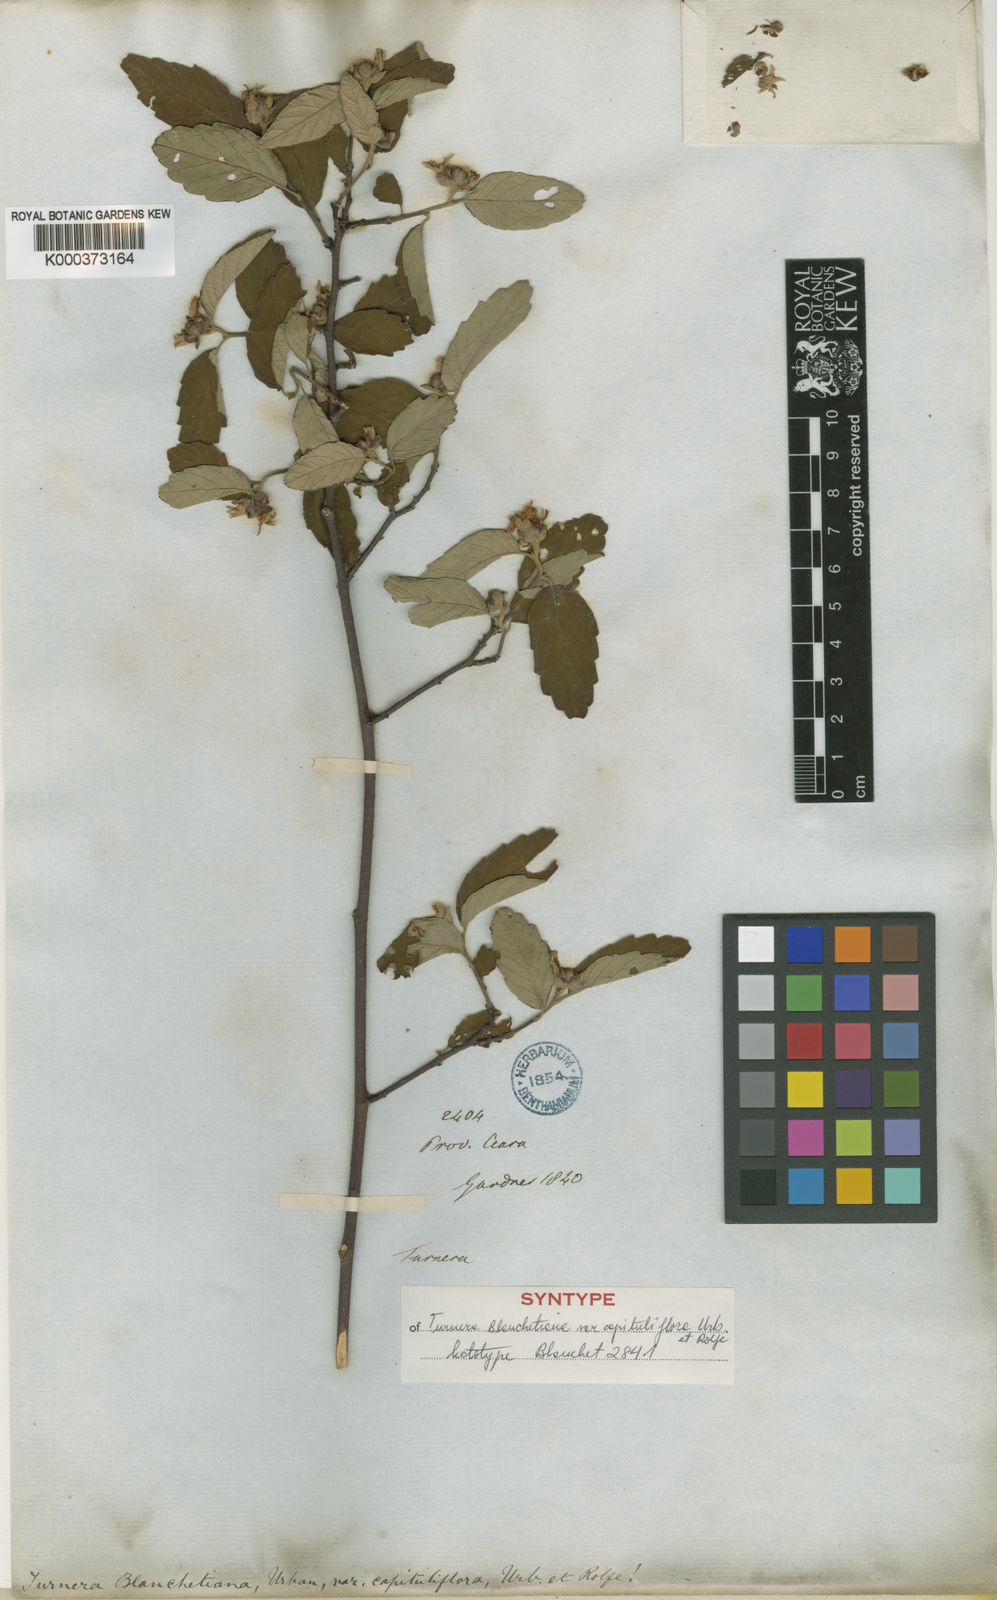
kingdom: Plantae
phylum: Tracheophyta
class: Magnoliopsida
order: Malpighiales
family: Turneraceae
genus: Turnera
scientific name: Turnera blanchetiana
